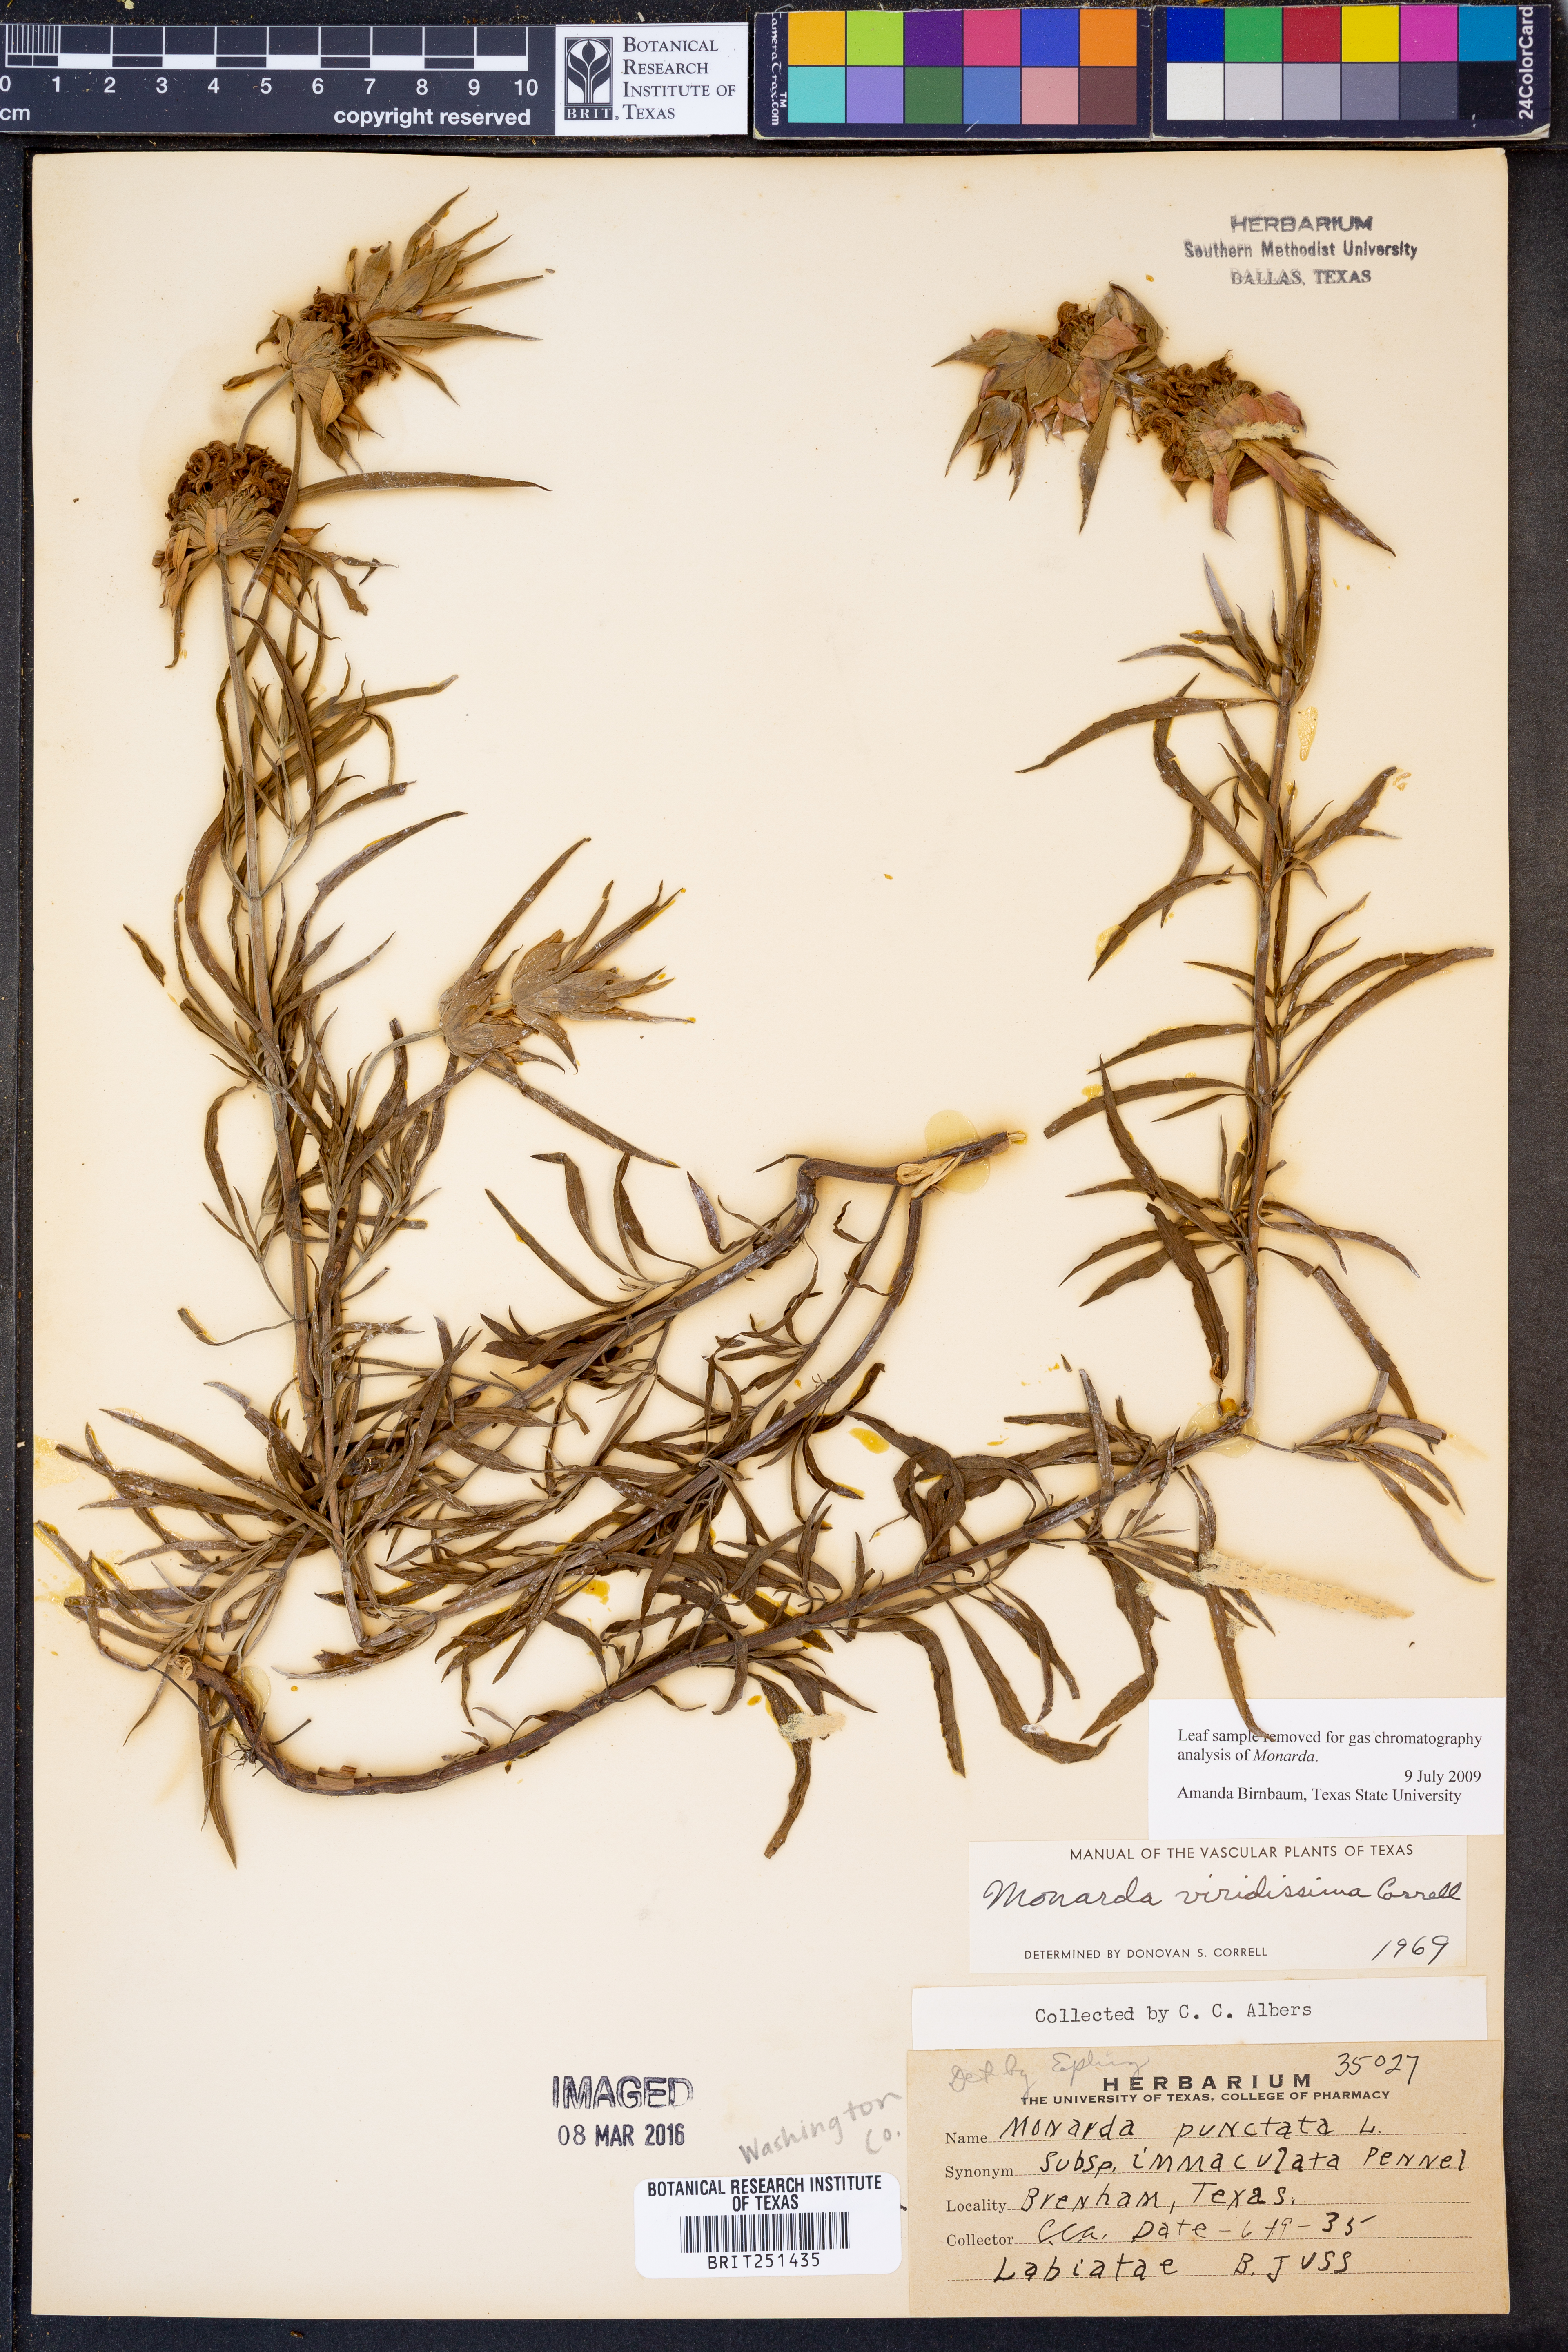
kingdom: Plantae
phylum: Tracheophyta
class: Magnoliopsida
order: Lamiales
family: Lamiaceae
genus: Monarda
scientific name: Monarda viridissima
